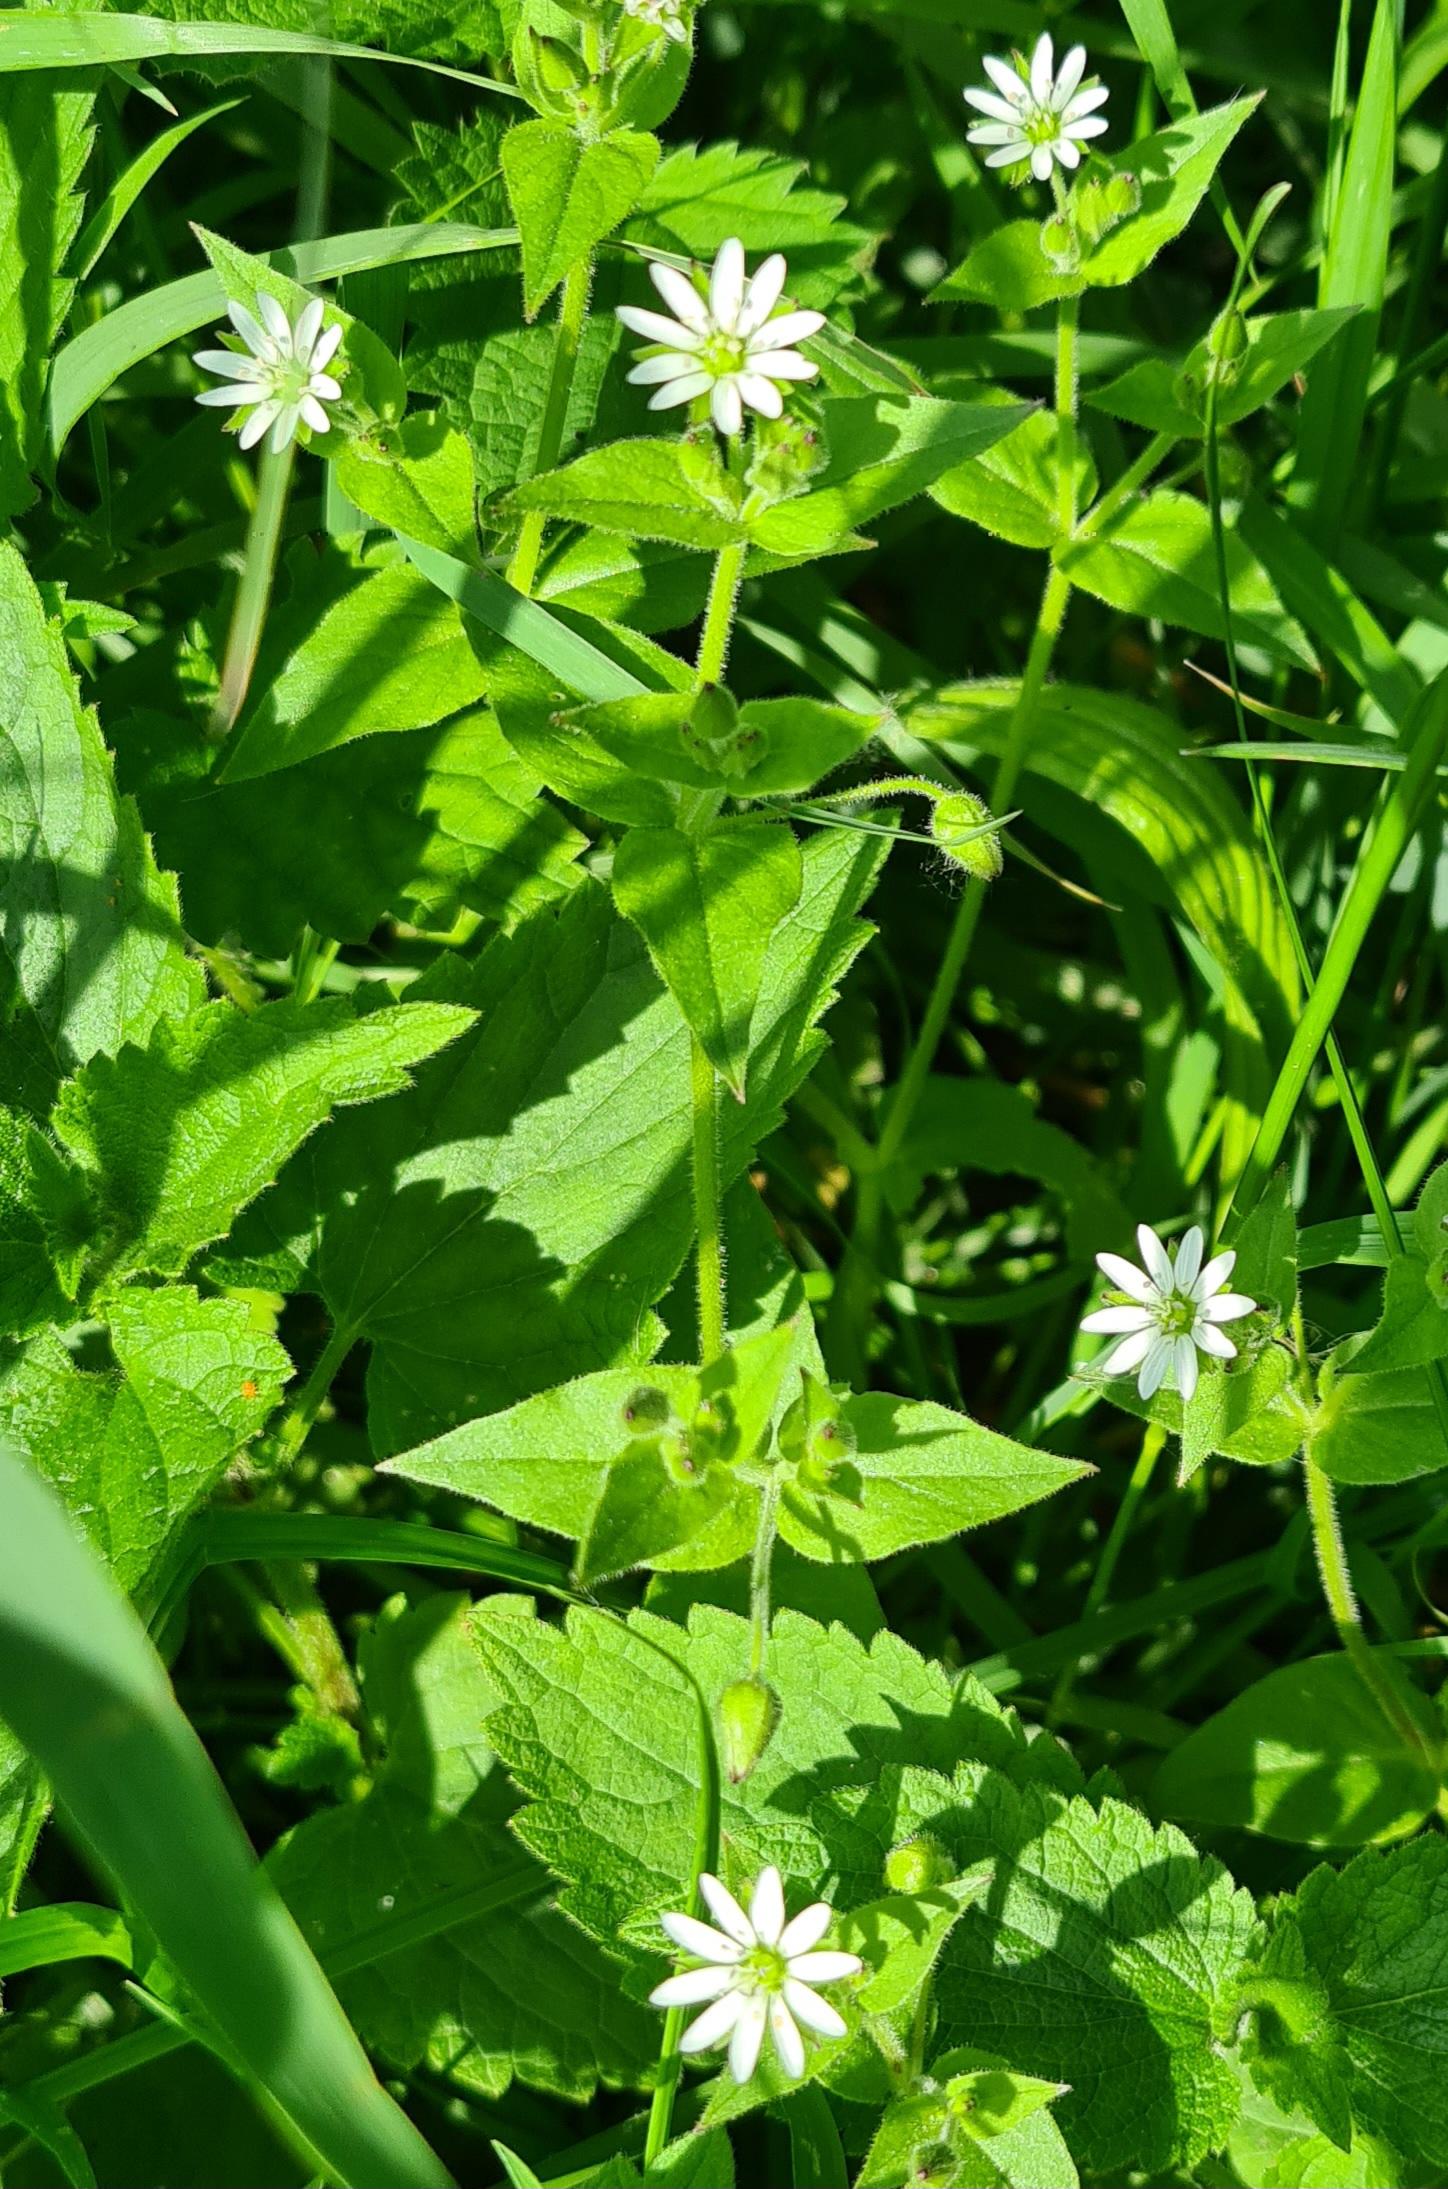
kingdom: Plantae
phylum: Tracheophyta
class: Magnoliopsida
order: Caryophyllales
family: Caryophyllaceae
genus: Stellaria
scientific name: Stellaria aquatica
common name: Kløvkrone
